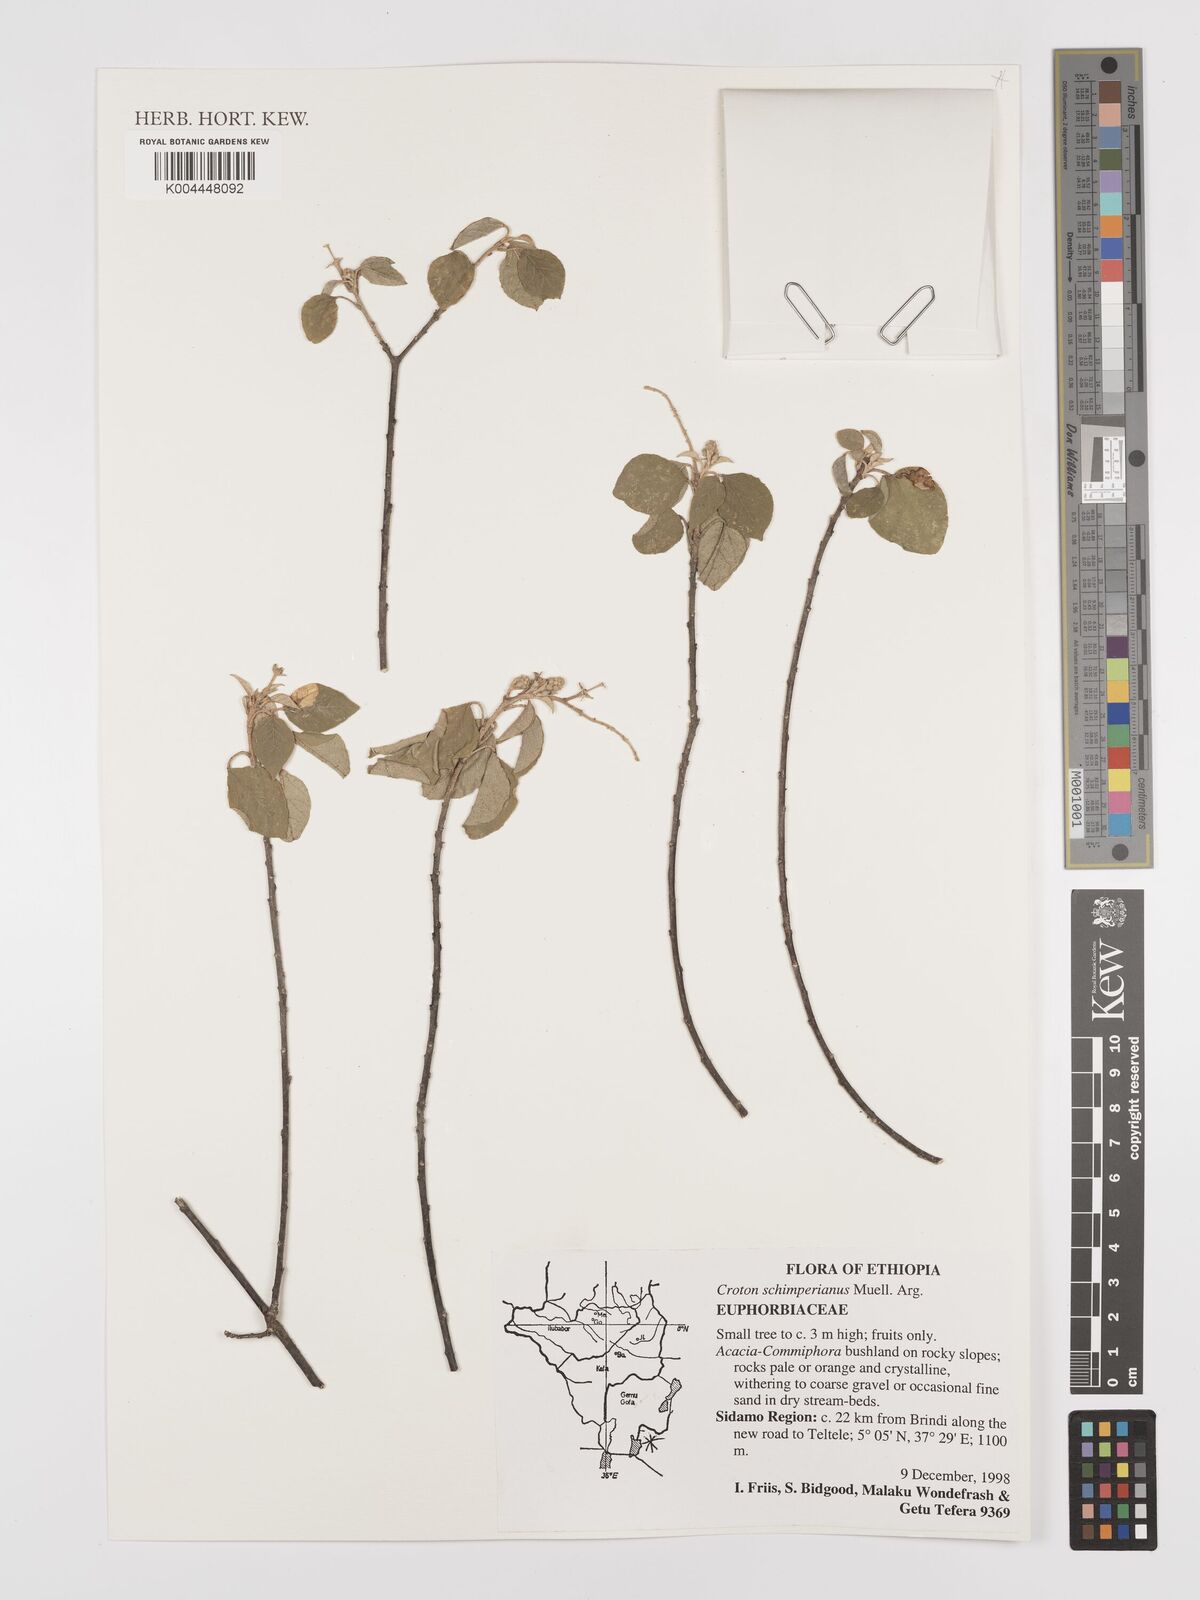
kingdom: Plantae
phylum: Tracheophyta
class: Magnoliopsida
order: Malpighiales
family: Euphorbiaceae
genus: Croton
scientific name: Croton schimperianus
